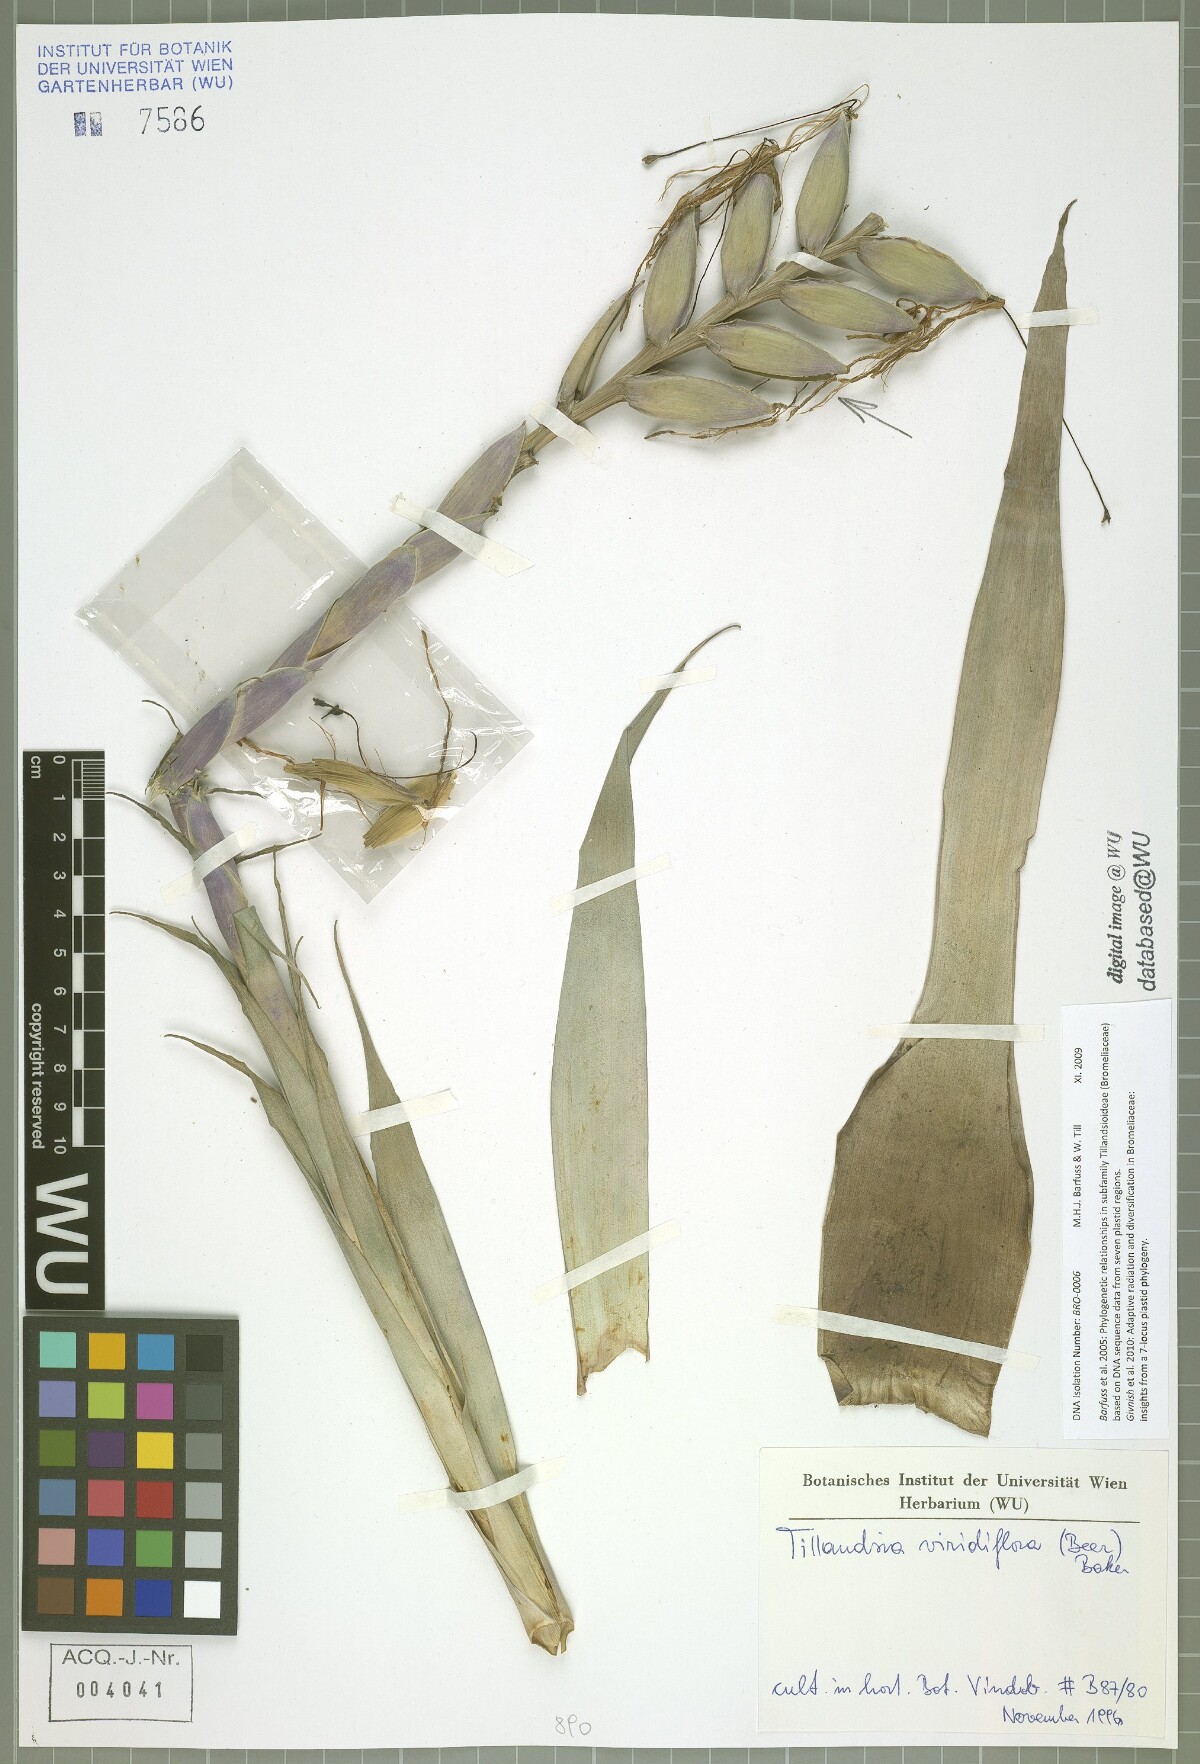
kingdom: Plantae
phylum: Tracheophyta
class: Liliopsida
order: Poales
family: Bromeliaceae
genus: Pseudalcantarea
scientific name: Pseudalcantarea viridiflora
